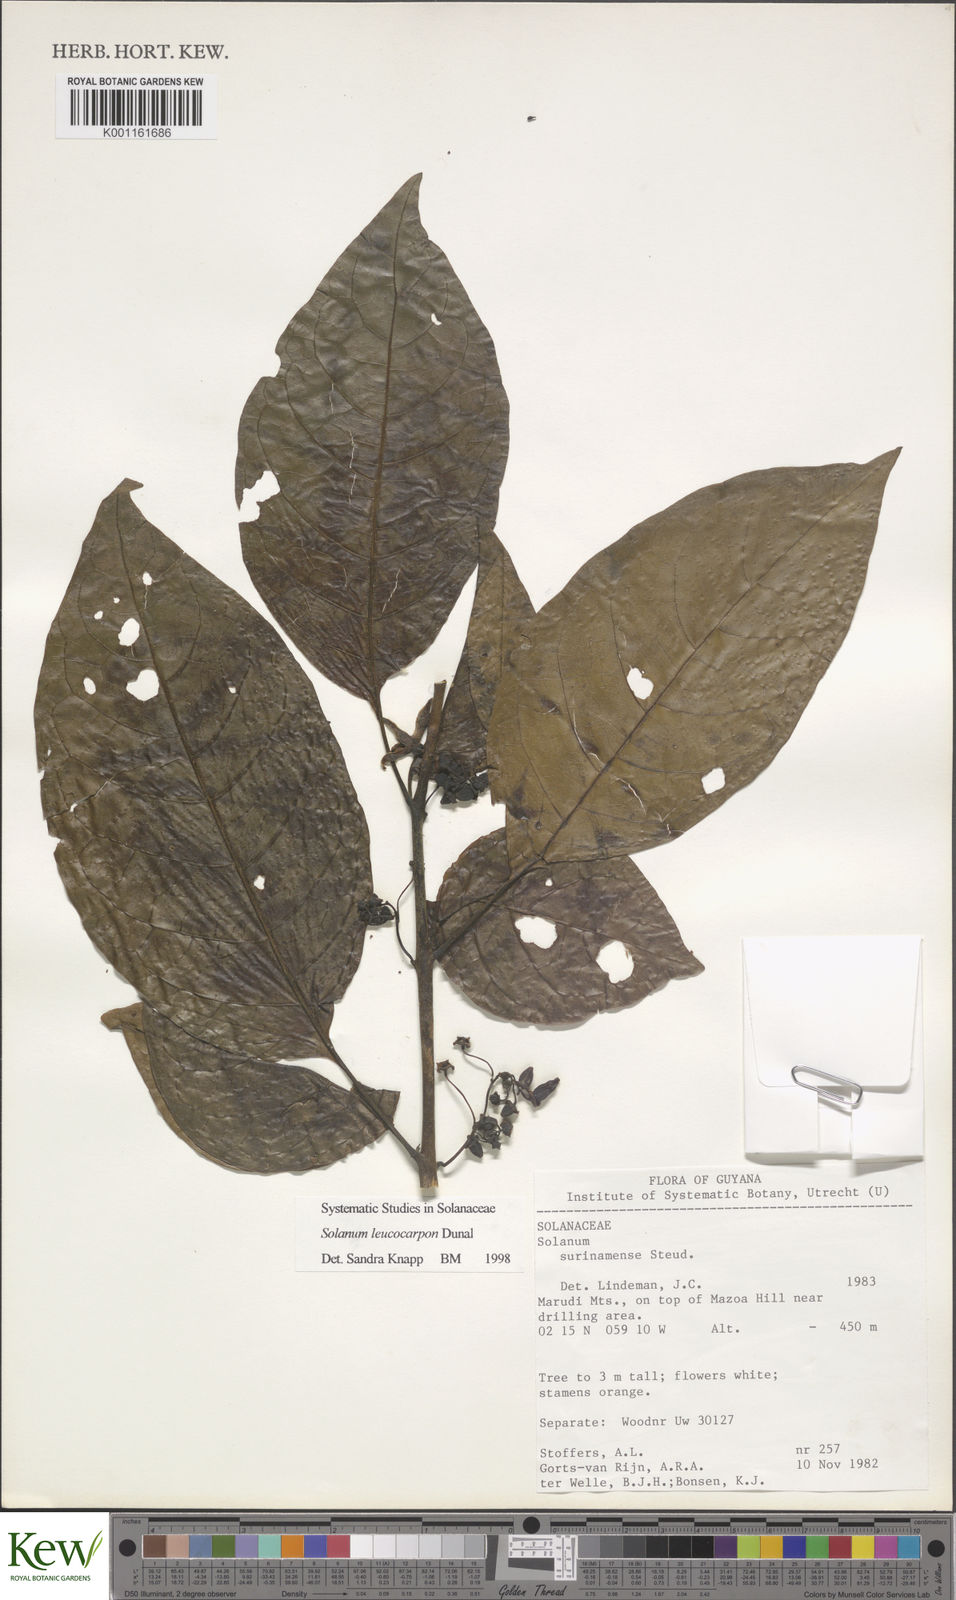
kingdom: Plantae
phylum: Tracheophyta
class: Magnoliopsida
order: Solanales
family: Solanaceae
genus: Solanum
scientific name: Solanum leucocarpon
